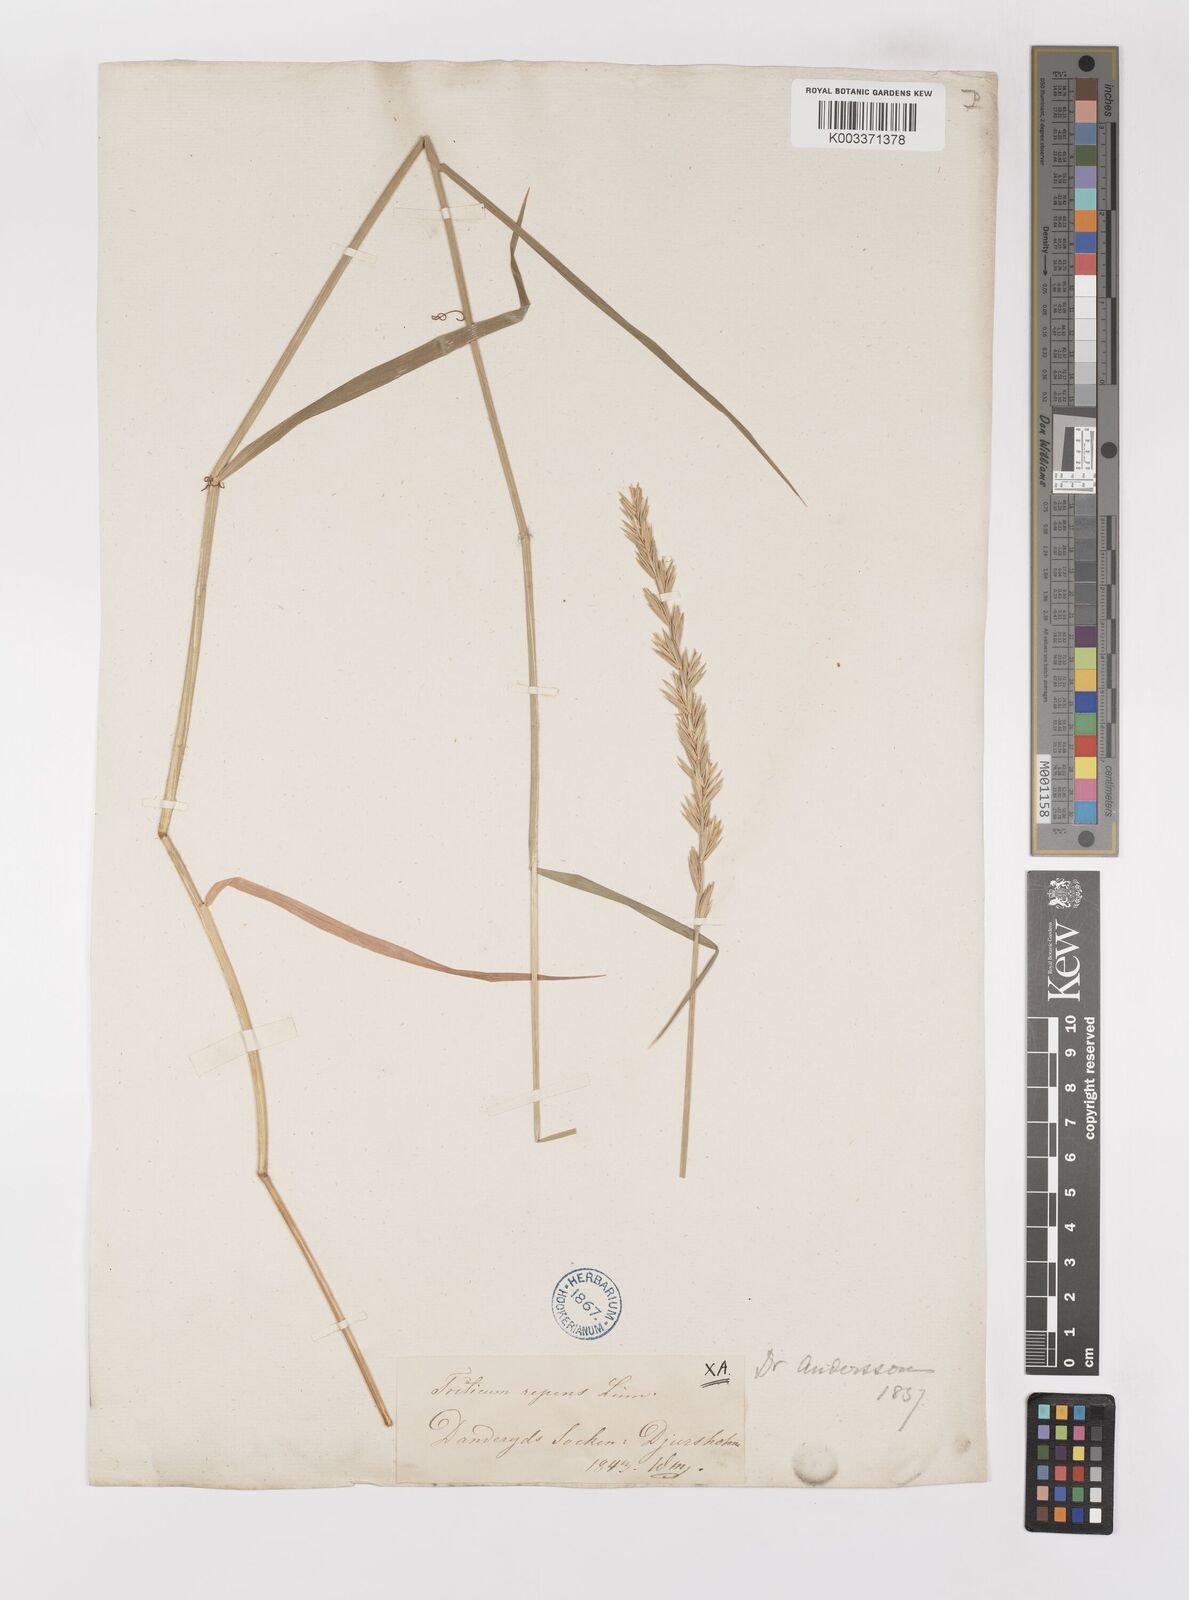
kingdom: Plantae
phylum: Tracheophyta
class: Liliopsida
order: Poales
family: Poaceae
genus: Elymus
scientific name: Elymus repens
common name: Quackgrass
